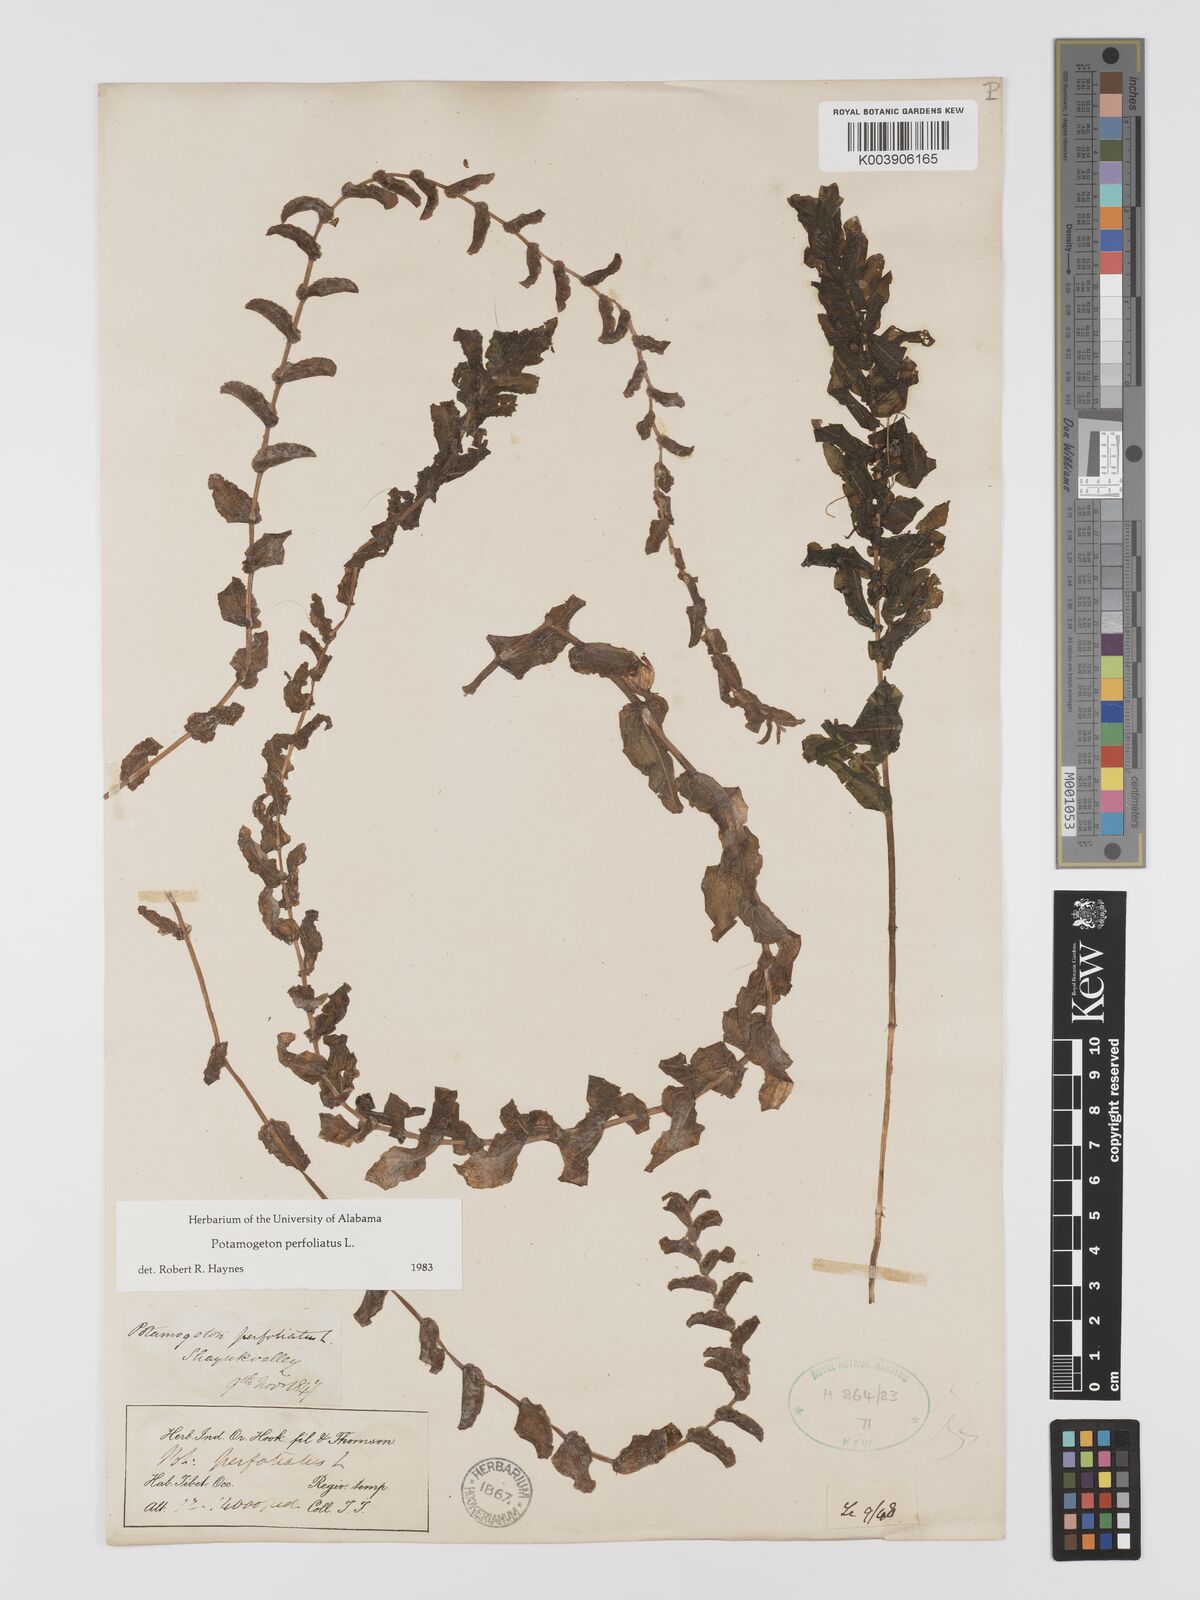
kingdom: Plantae
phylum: Tracheophyta
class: Liliopsida
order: Alismatales
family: Potamogetonaceae
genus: Potamogeton
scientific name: Potamogeton perfoliatus
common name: Perfoliate pondweed
